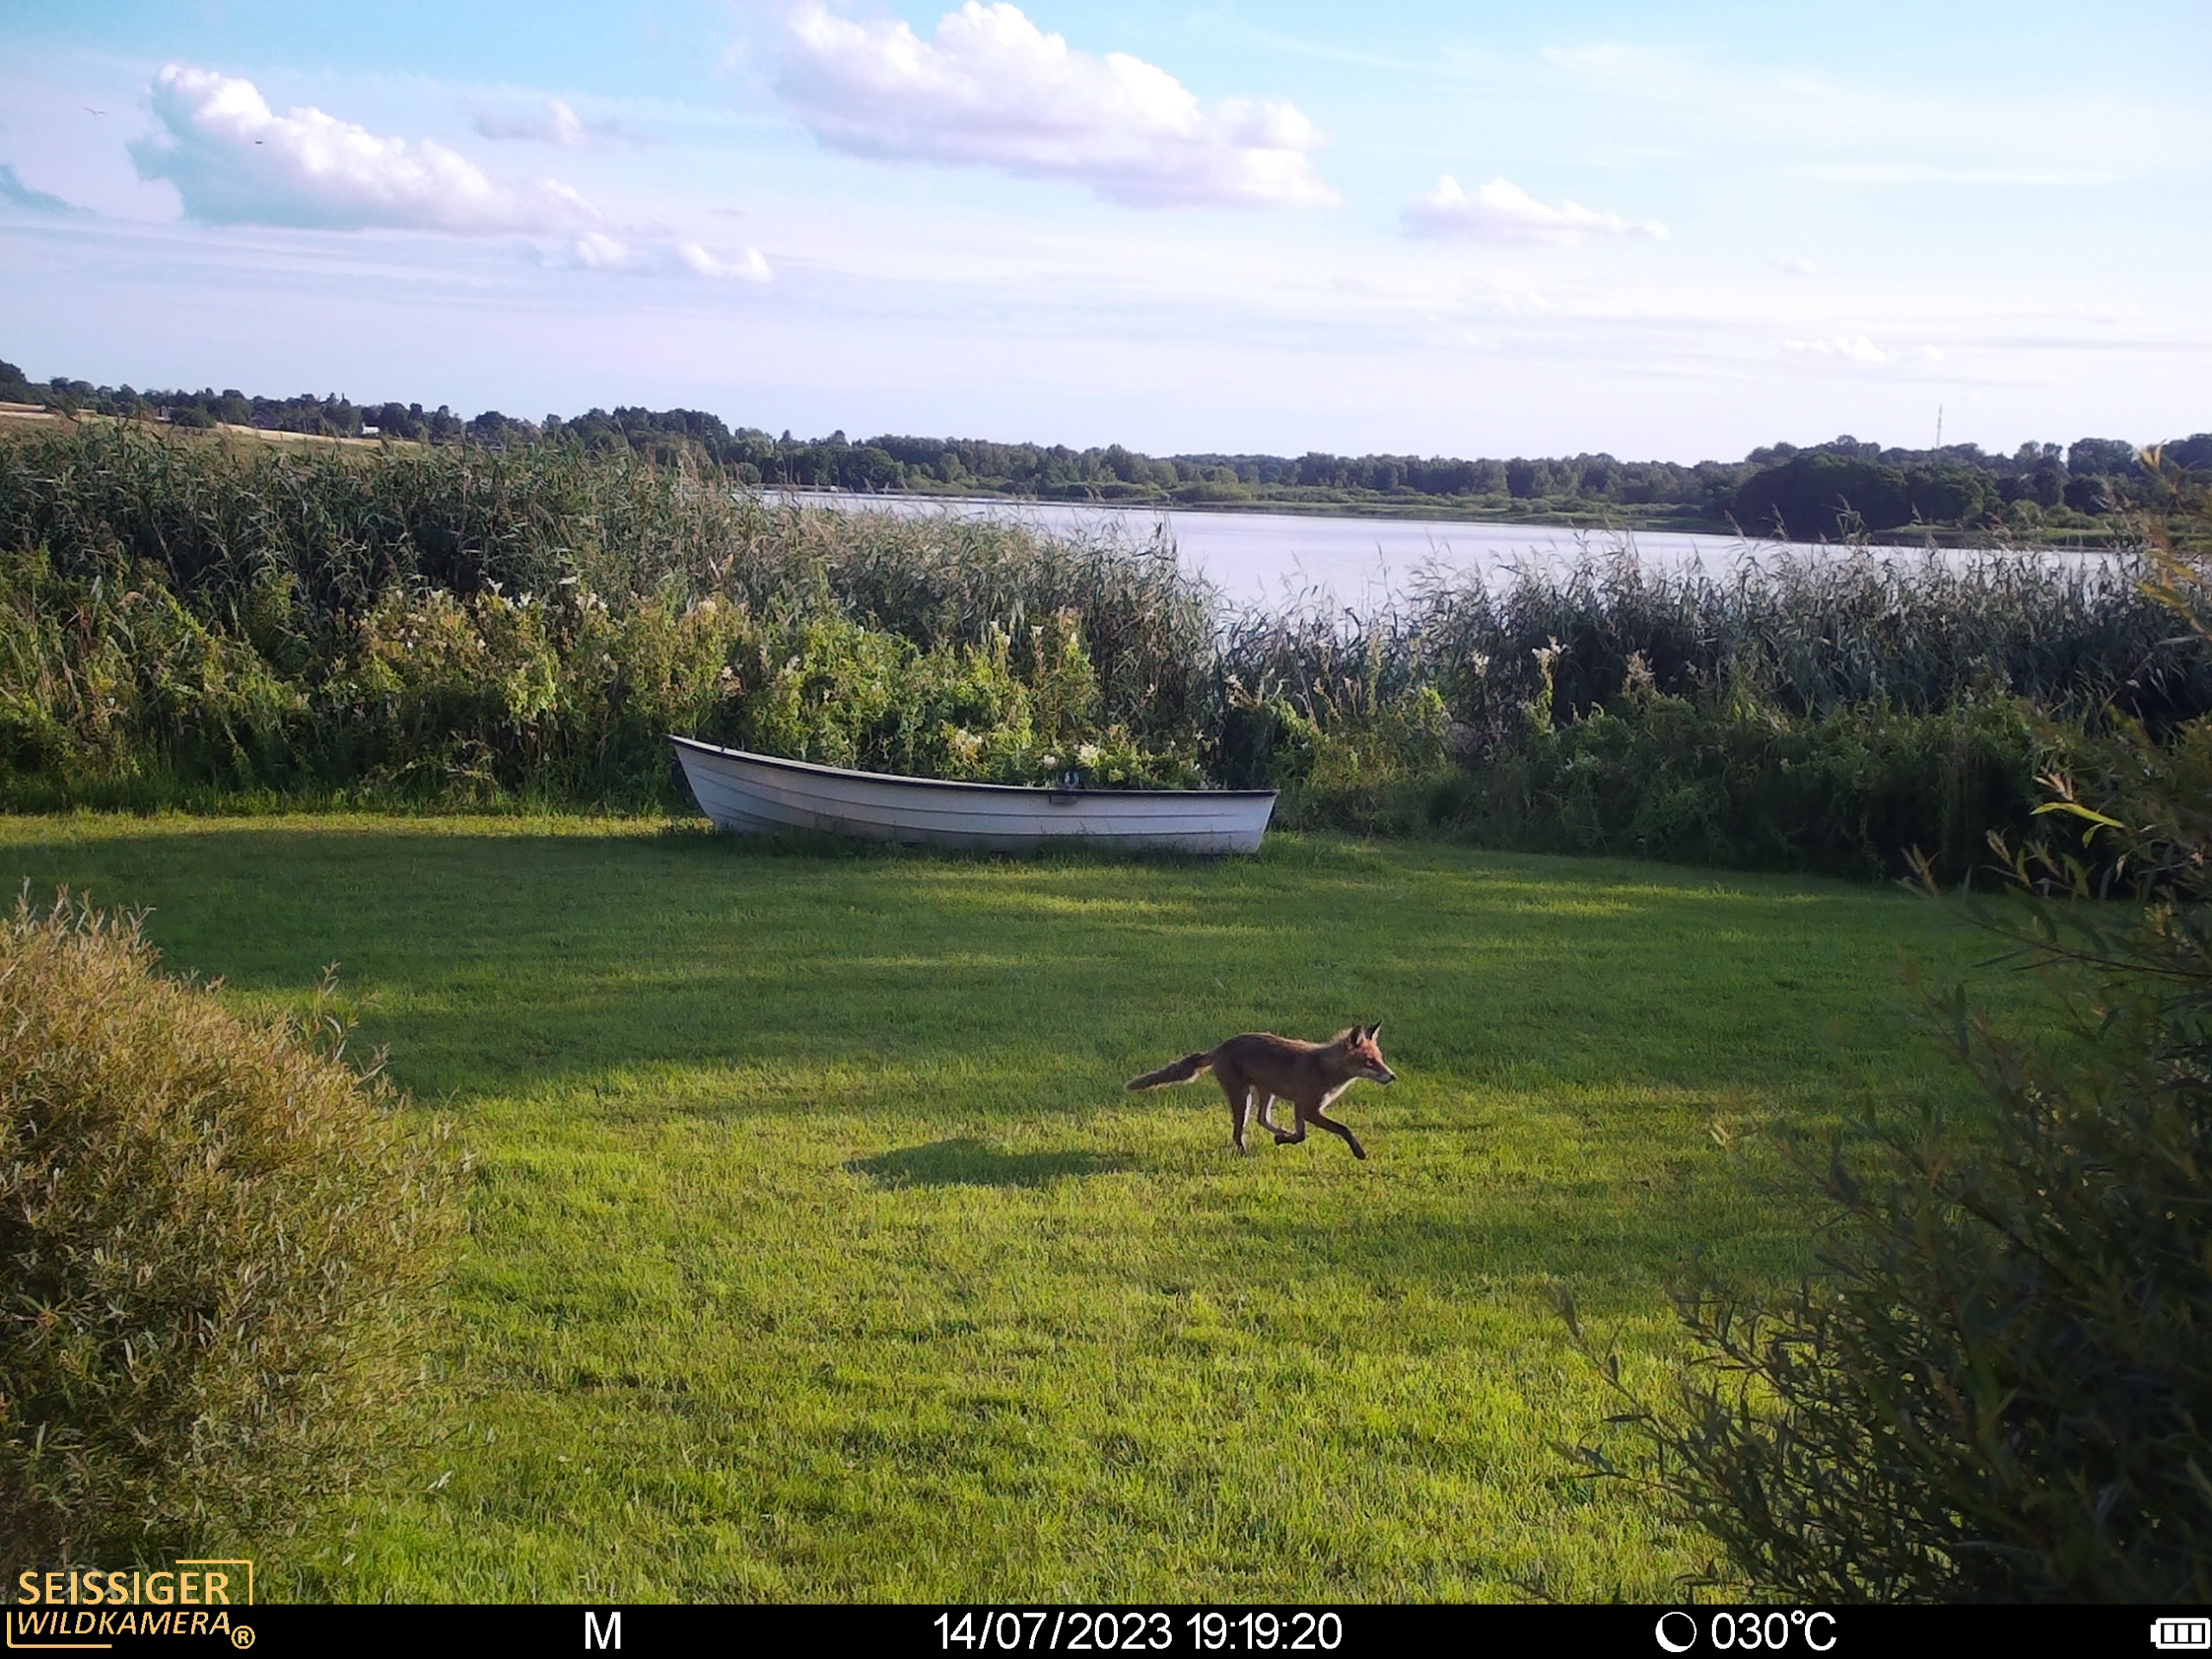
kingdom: Animalia
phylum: Chordata
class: Mammalia
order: Carnivora
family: Canidae
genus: Vulpes
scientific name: Vulpes vulpes
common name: Ræv
